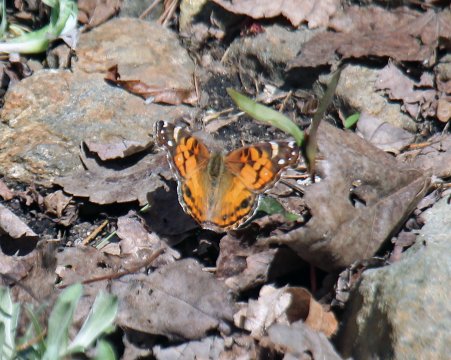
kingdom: Animalia
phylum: Arthropoda
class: Insecta
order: Lepidoptera
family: Nymphalidae
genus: Vanessa
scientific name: Vanessa virginiensis
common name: American Lady
